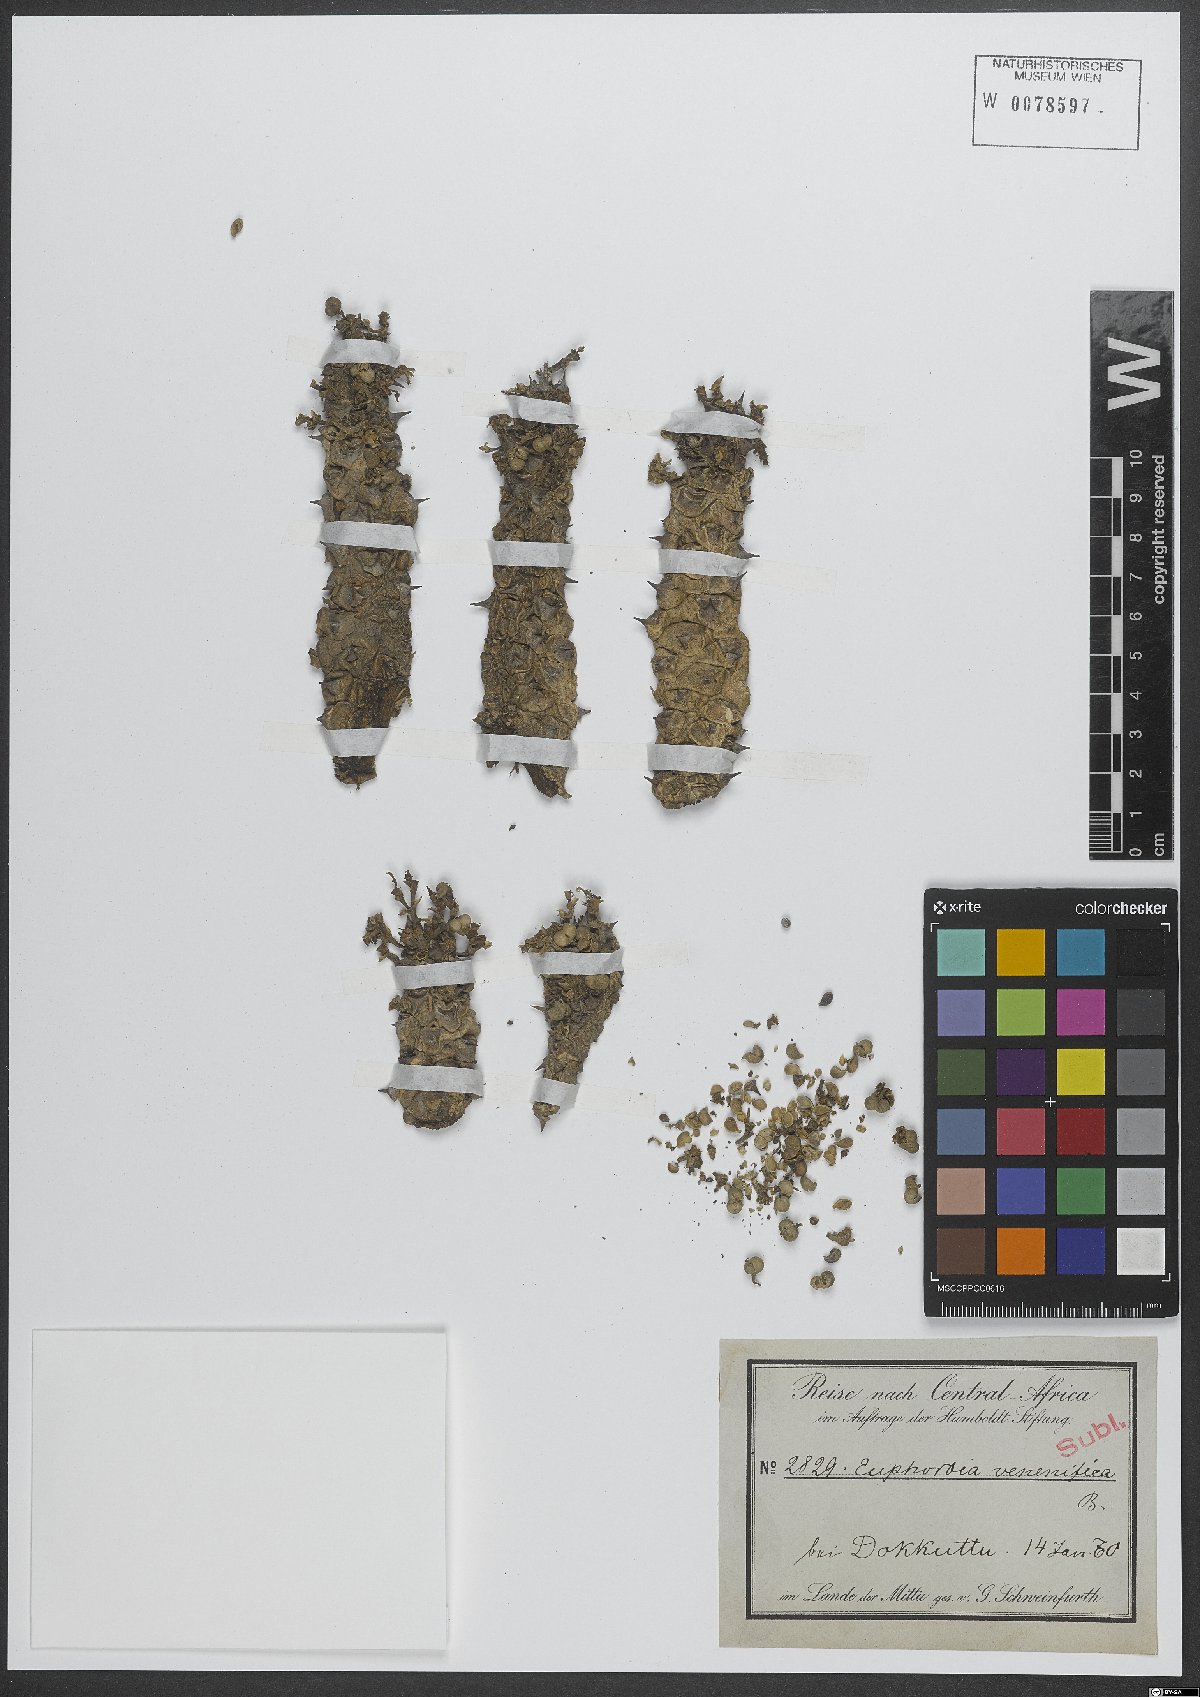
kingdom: Plantae
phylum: Tracheophyta
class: Magnoliopsida
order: Malpighiales
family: Euphorbiaceae
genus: Euphorbia
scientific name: Euphorbia
